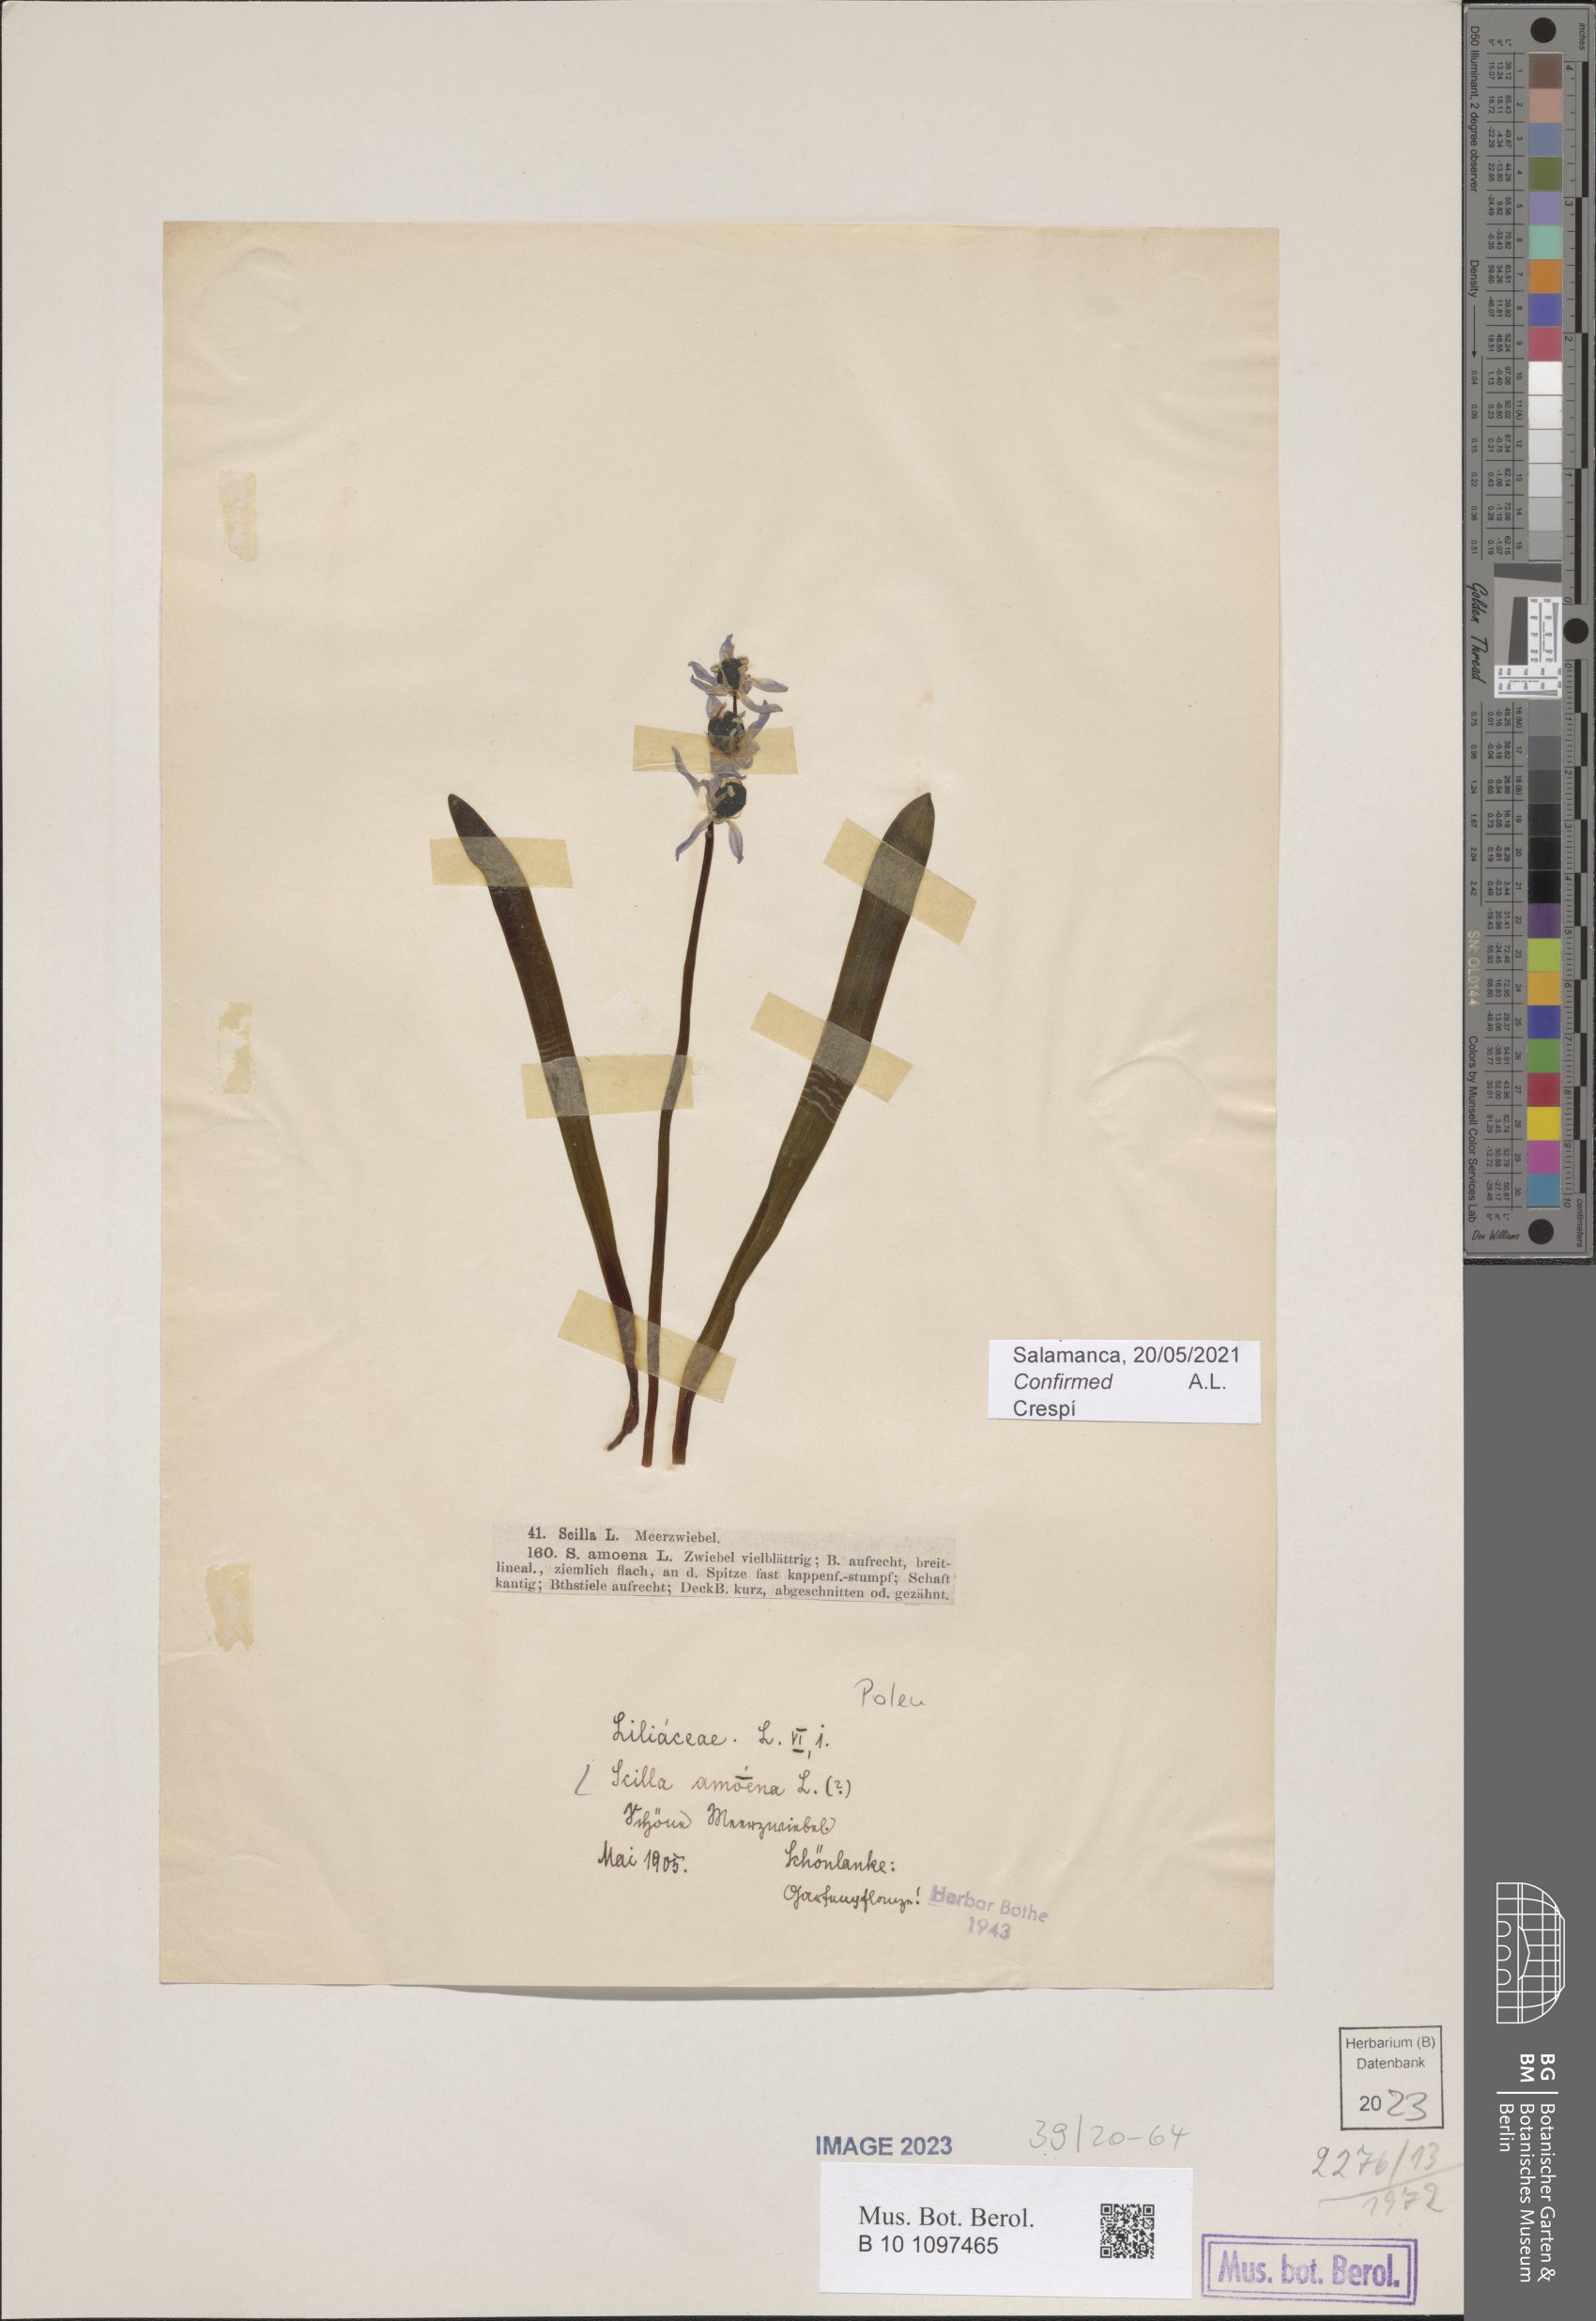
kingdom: Plantae
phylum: Tracheophyta
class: Liliopsida
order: Asparagales
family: Asparagaceae
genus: Scilla
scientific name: Scilla amoena
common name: Star-hyacinth
